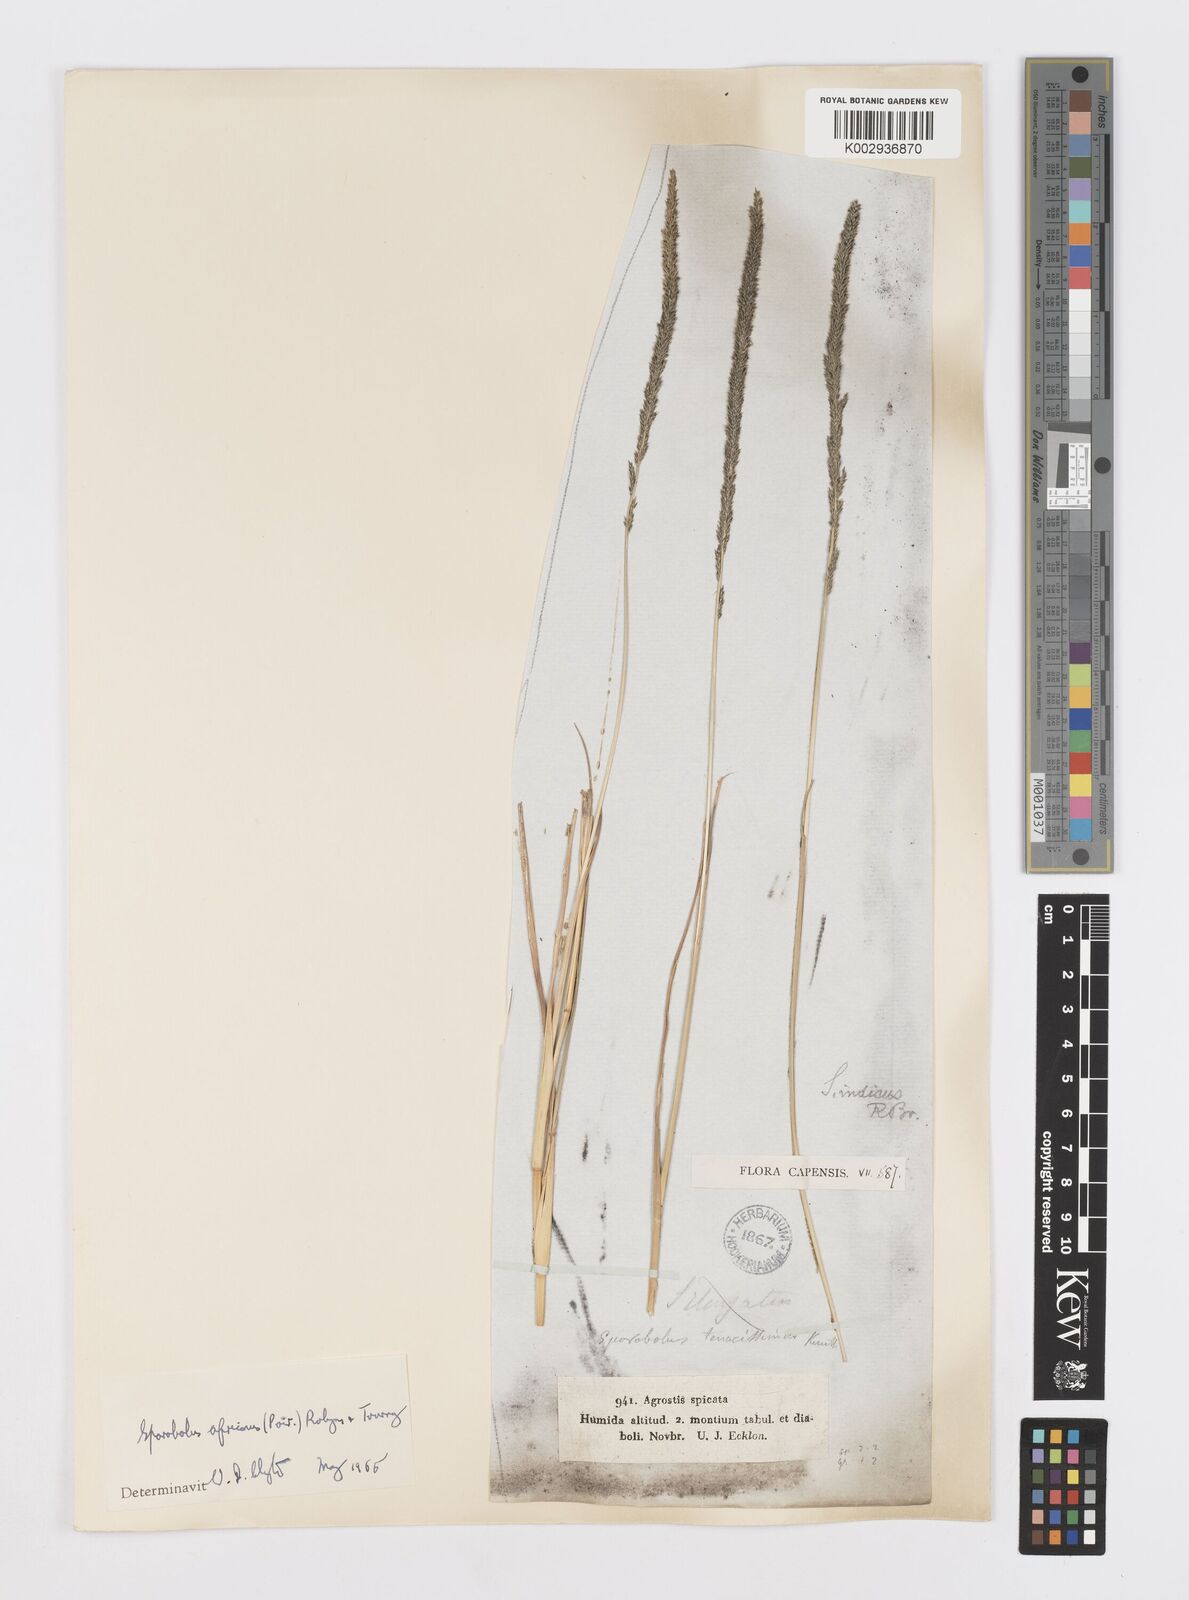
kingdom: Plantae
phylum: Tracheophyta
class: Liliopsida
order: Poales
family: Poaceae
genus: Sporobolus
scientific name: Sporobolus africanus
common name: African dropseed
